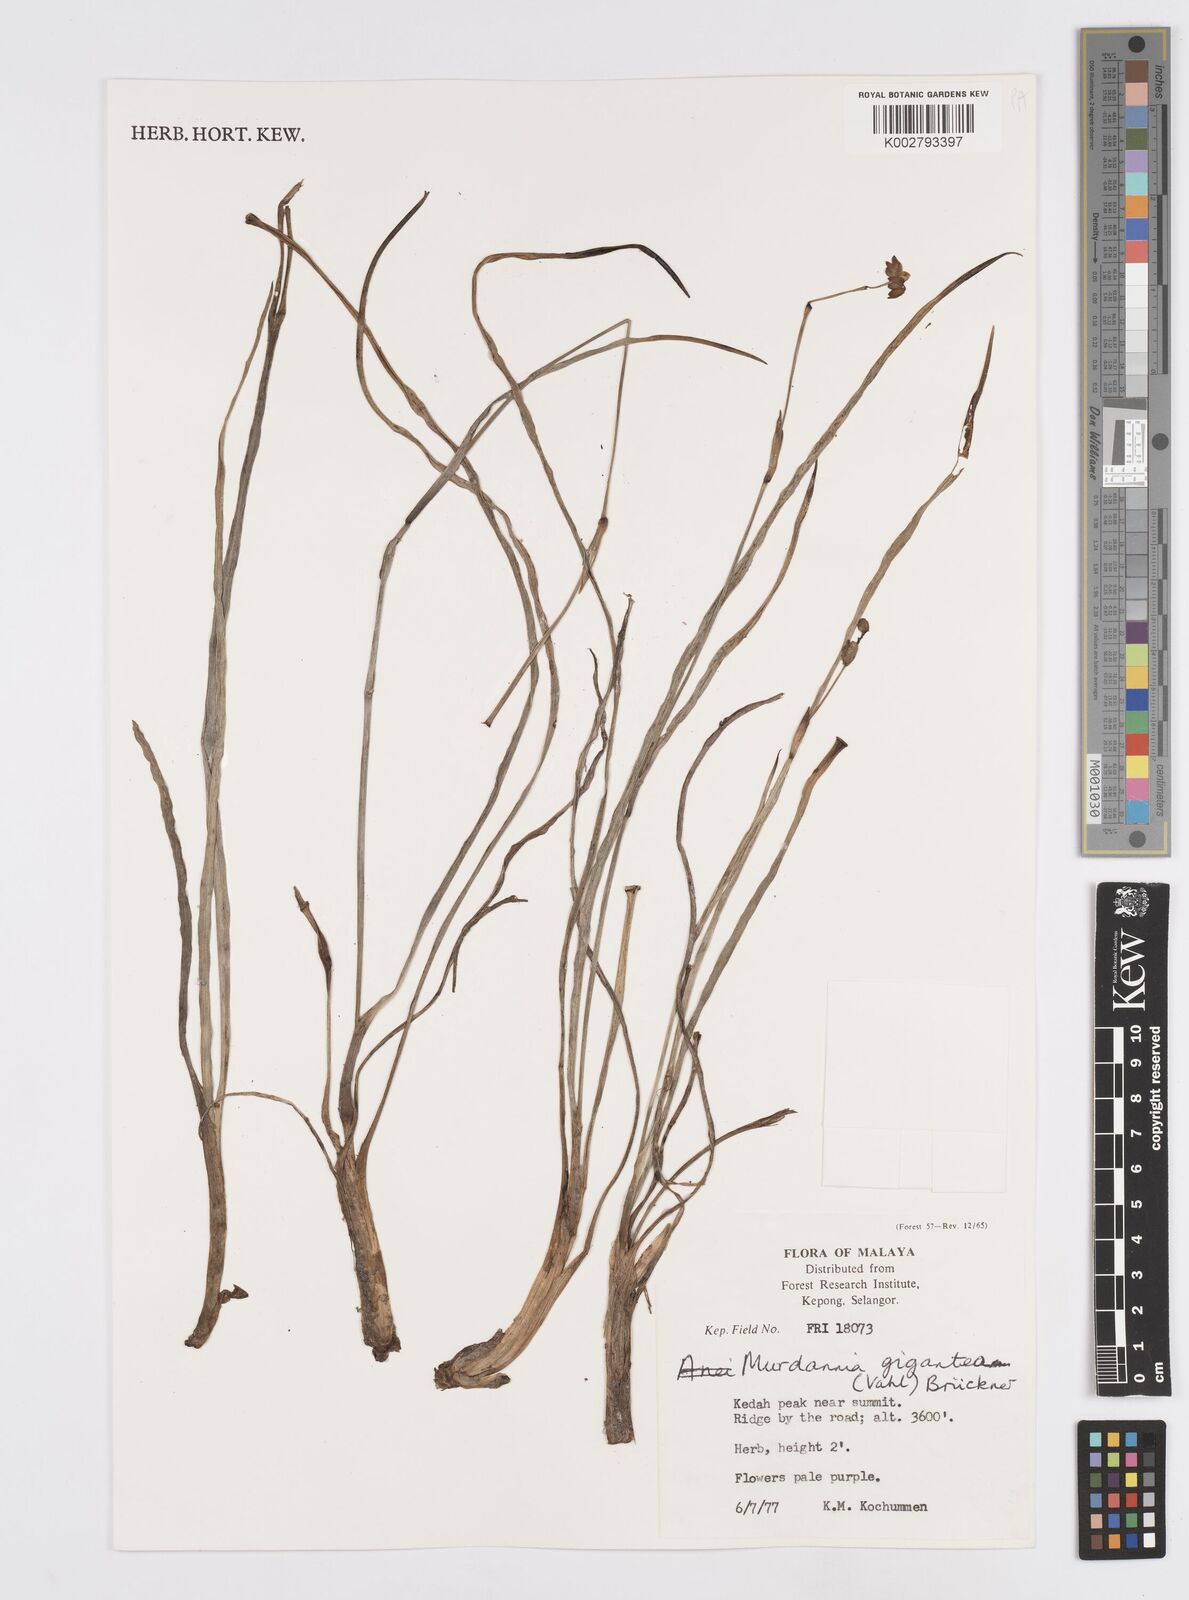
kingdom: Plantae
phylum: Tracheophyta
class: Liliopsida
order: Commelinales
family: Commelinaceae
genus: Murdannia
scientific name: Murdannia gigantea
